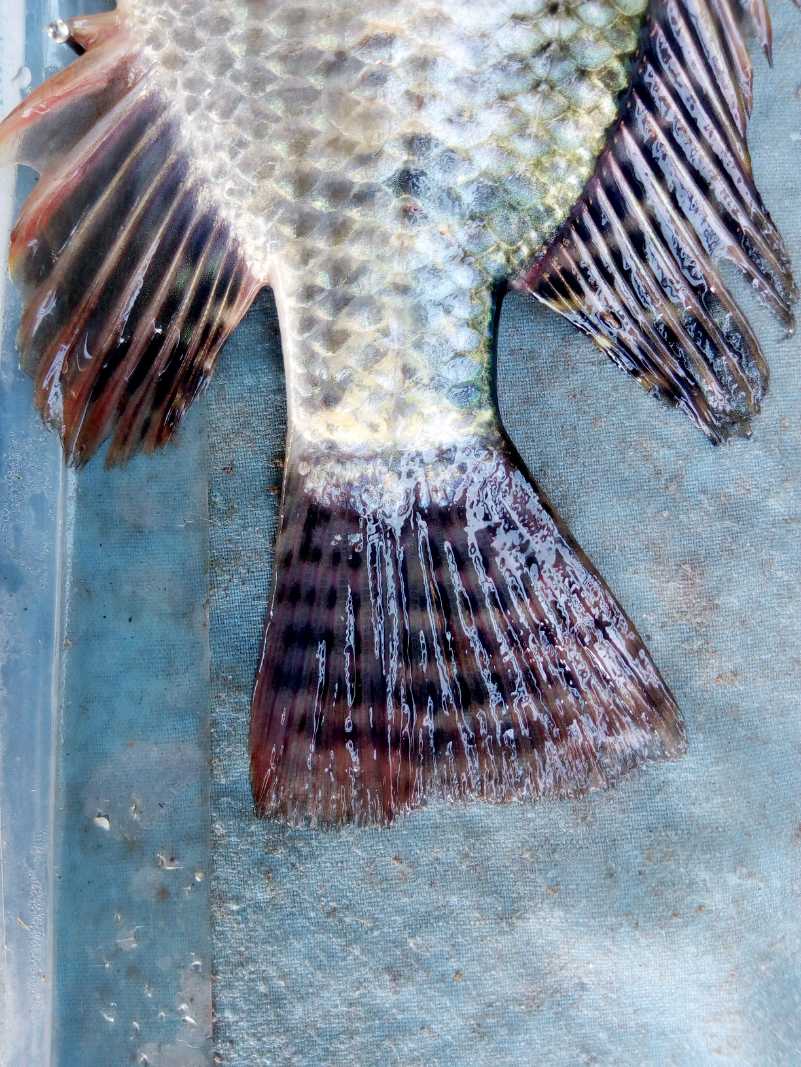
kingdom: Animalia
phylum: Chordata
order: Perciformes
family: Cichlidae
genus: Oreochromis
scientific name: Oreochromis niloticus
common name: Nile tilapia
